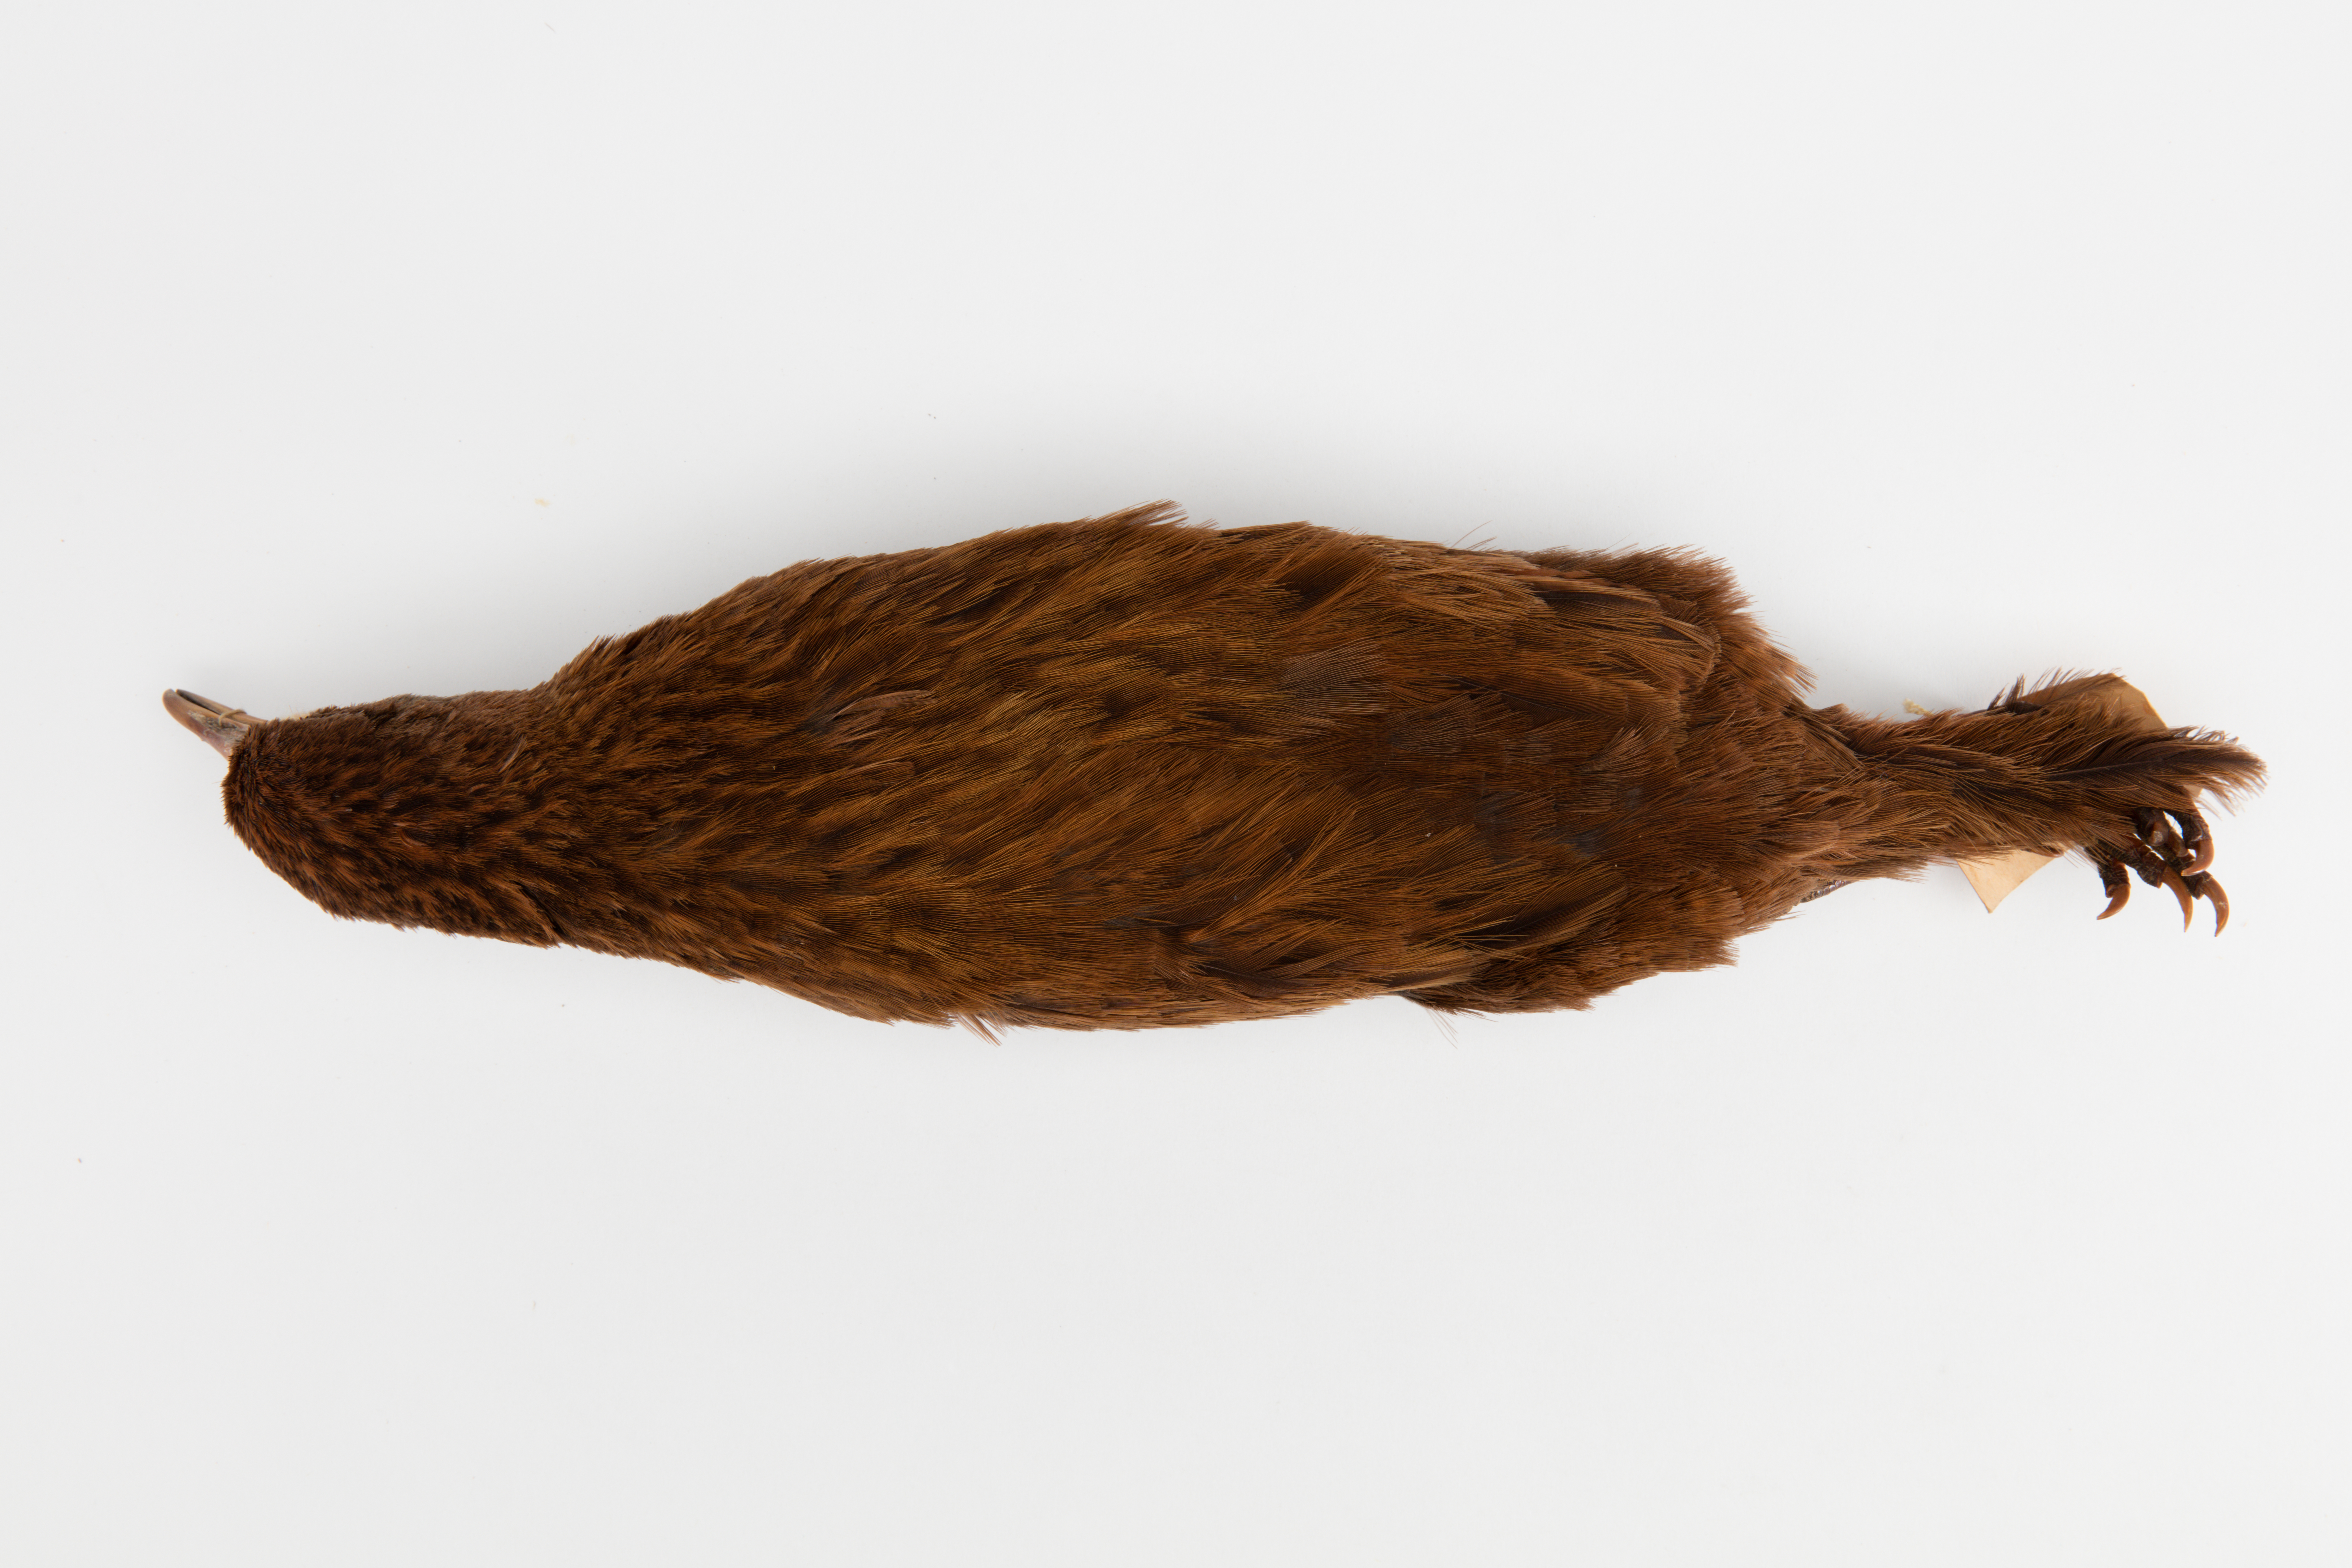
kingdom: Animalia
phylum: Chordata
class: Aves
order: Gruiformes
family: Rallidae
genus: Gallirallus
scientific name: Gallirallus australis
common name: Weka
